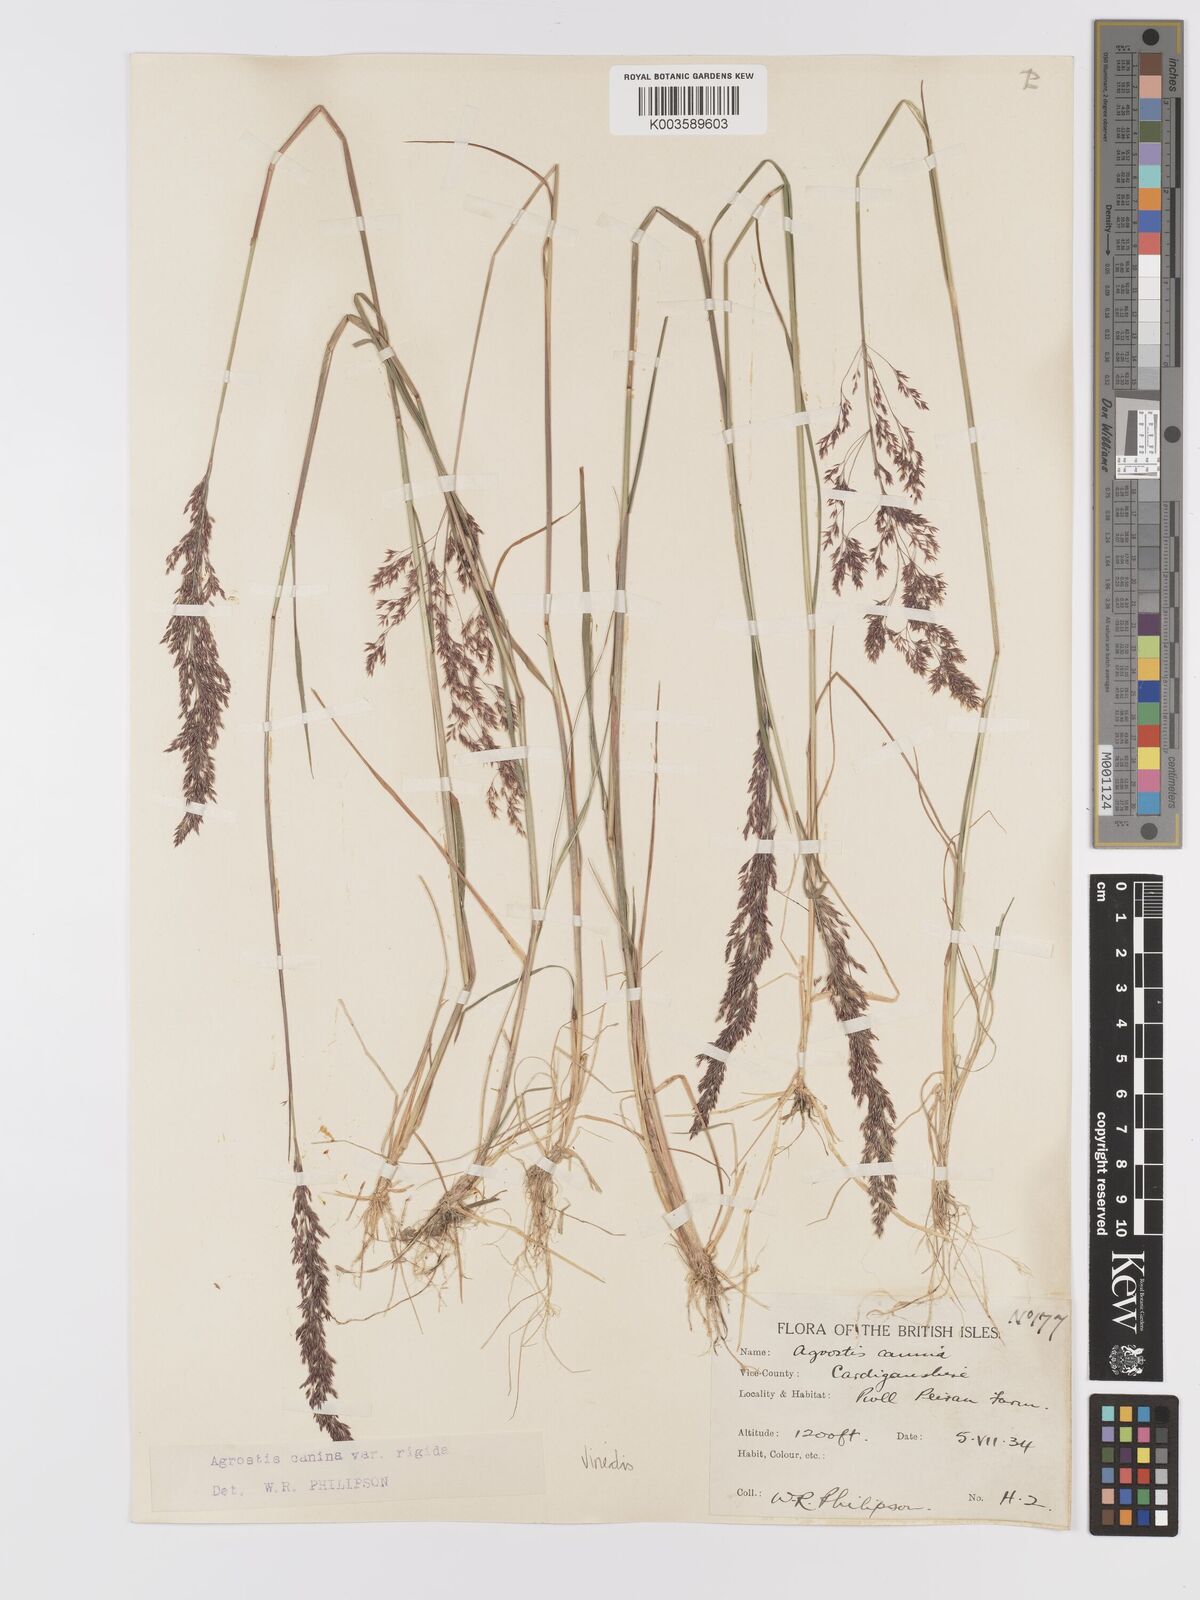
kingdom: Plantae
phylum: Tracheophyta
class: Liliopsida
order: Poales
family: Poaceae
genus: Agrostis
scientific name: Agrostis
